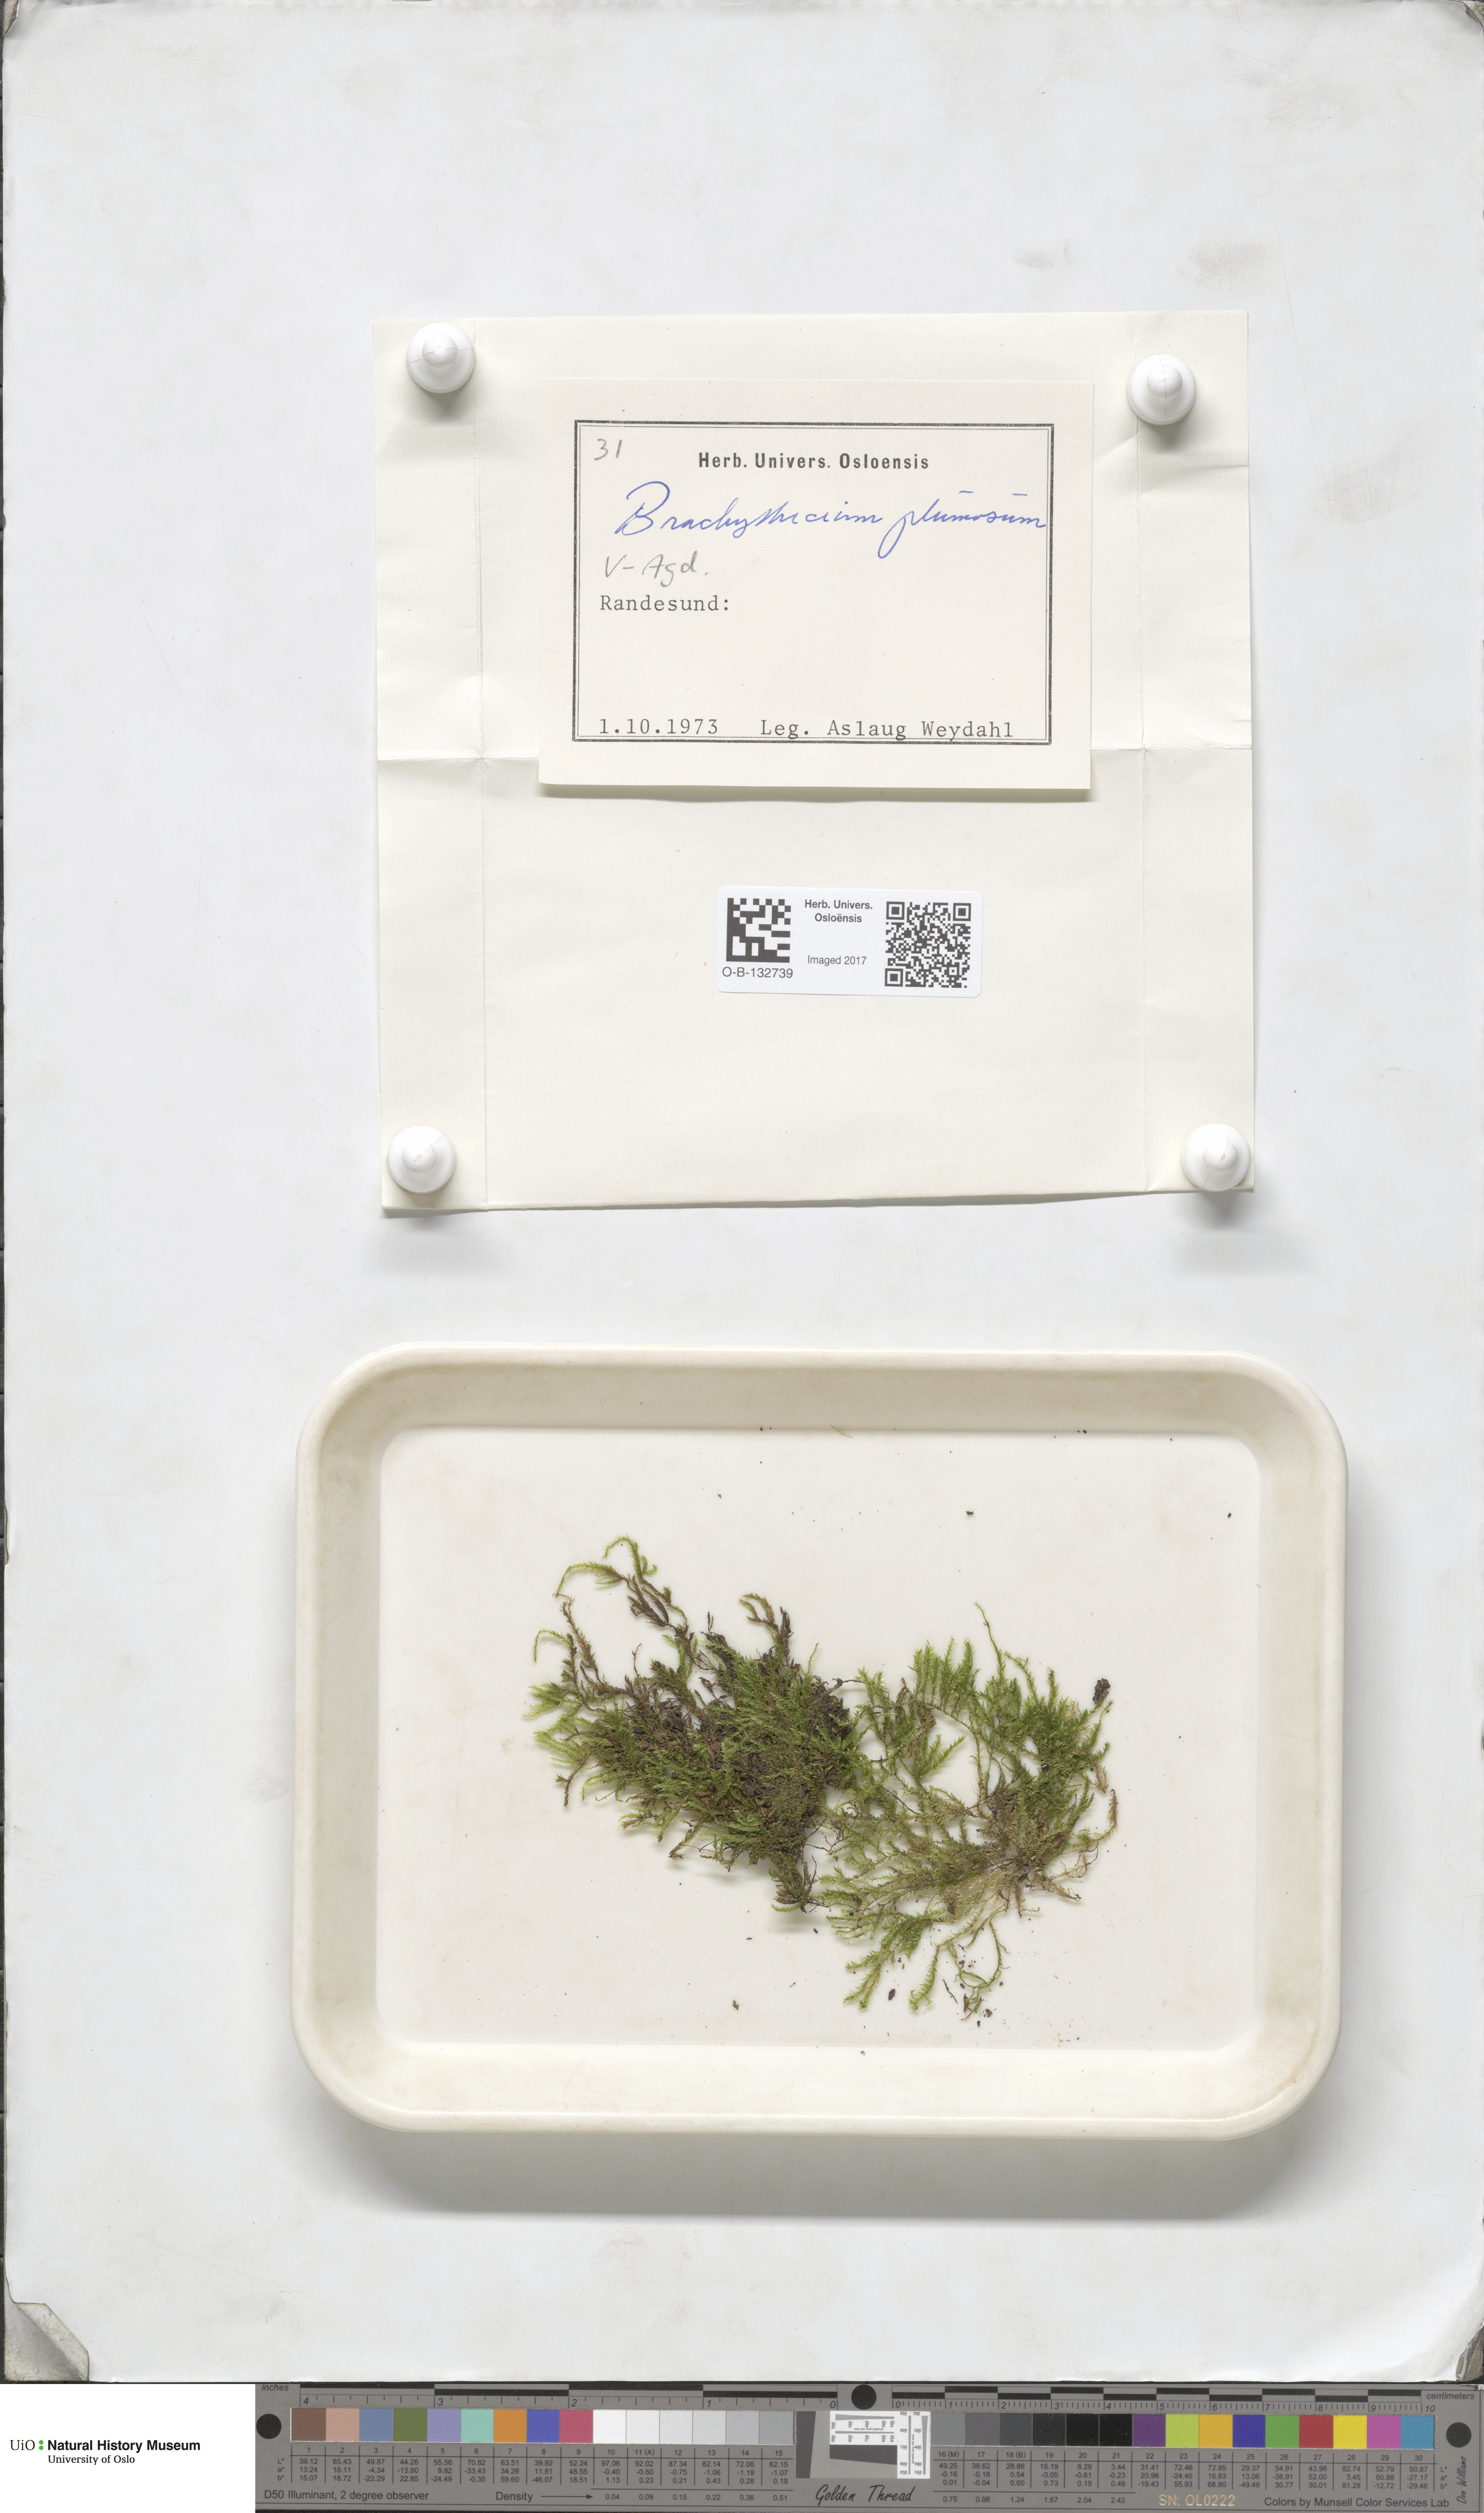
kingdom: Plantae
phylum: Bryophyta
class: Bryopsida
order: Hypnales
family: Brachytheciaceae
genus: Sciuro-hypnum
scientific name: Sciuro-hypnum plumosum
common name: Rusty feather-moss
